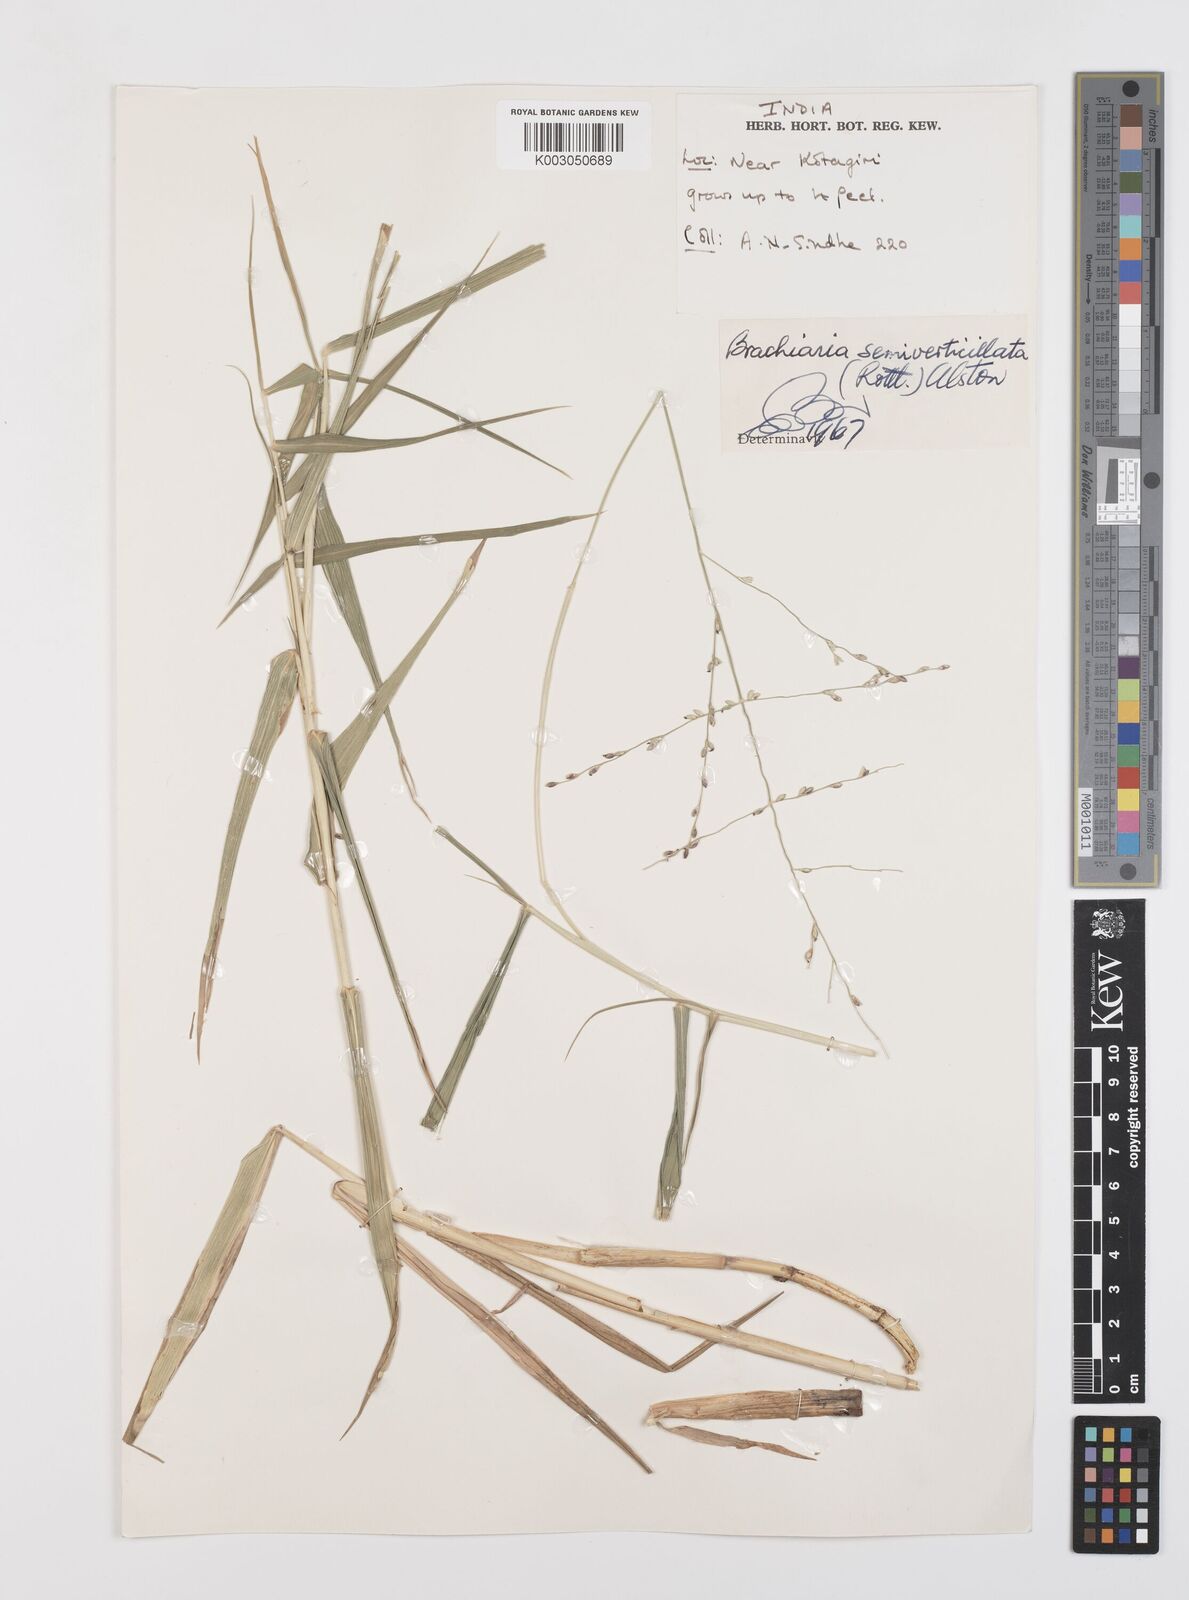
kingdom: Plantae
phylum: Tracheophyta
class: Liliopsida
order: Poales
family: Poaceae
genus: Urochloa
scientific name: Urochloa Brachiaria semiverticillata
